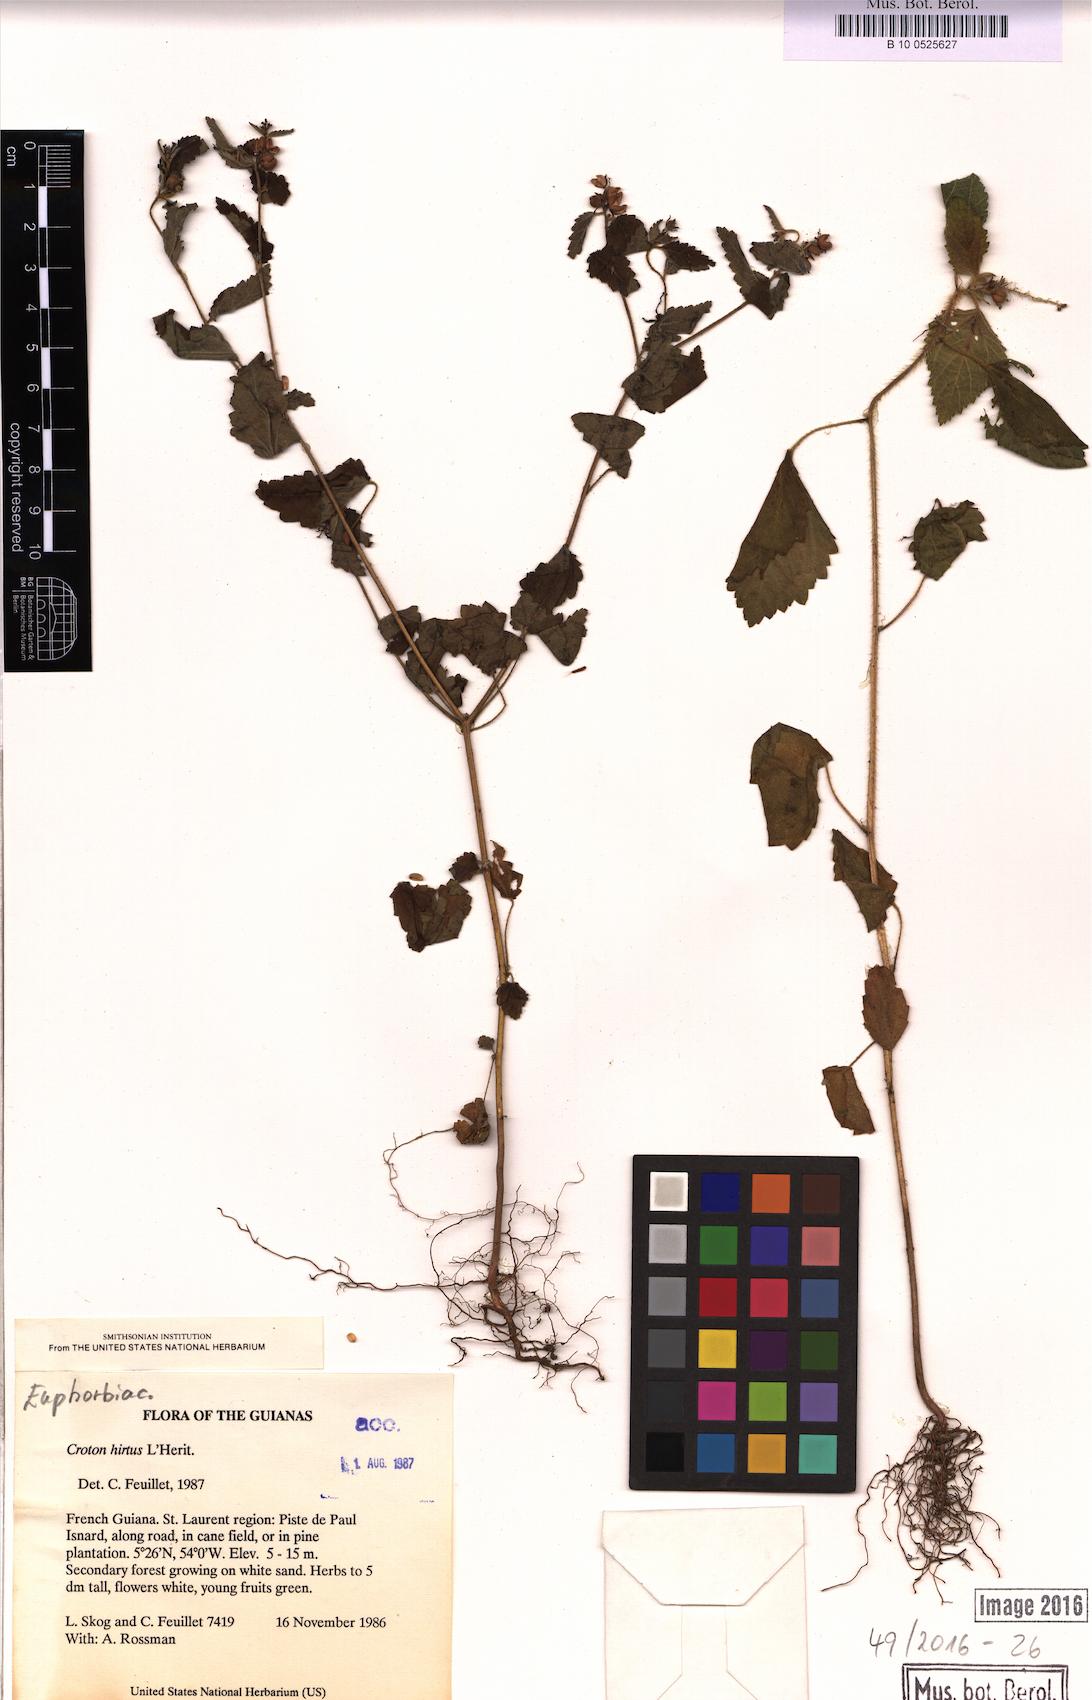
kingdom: Plantae
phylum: Tracheophyta
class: Magnoliopsida
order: Malpighiales
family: Euphorbiaceae
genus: Croton
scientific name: Croton hirtus
